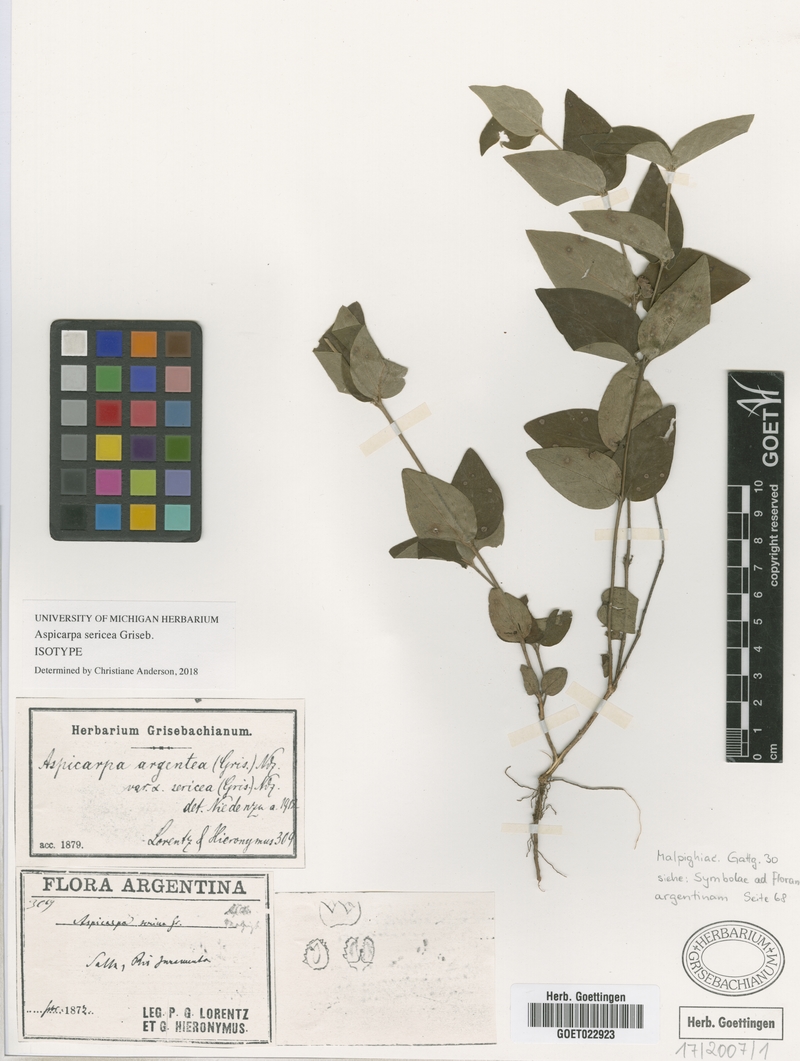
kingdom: Plantae
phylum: Tracheophyta
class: Magnoliopsida
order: Malpighiales
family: Malpighiaceae
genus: Aspicarpa
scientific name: Aspicarpa sericea
